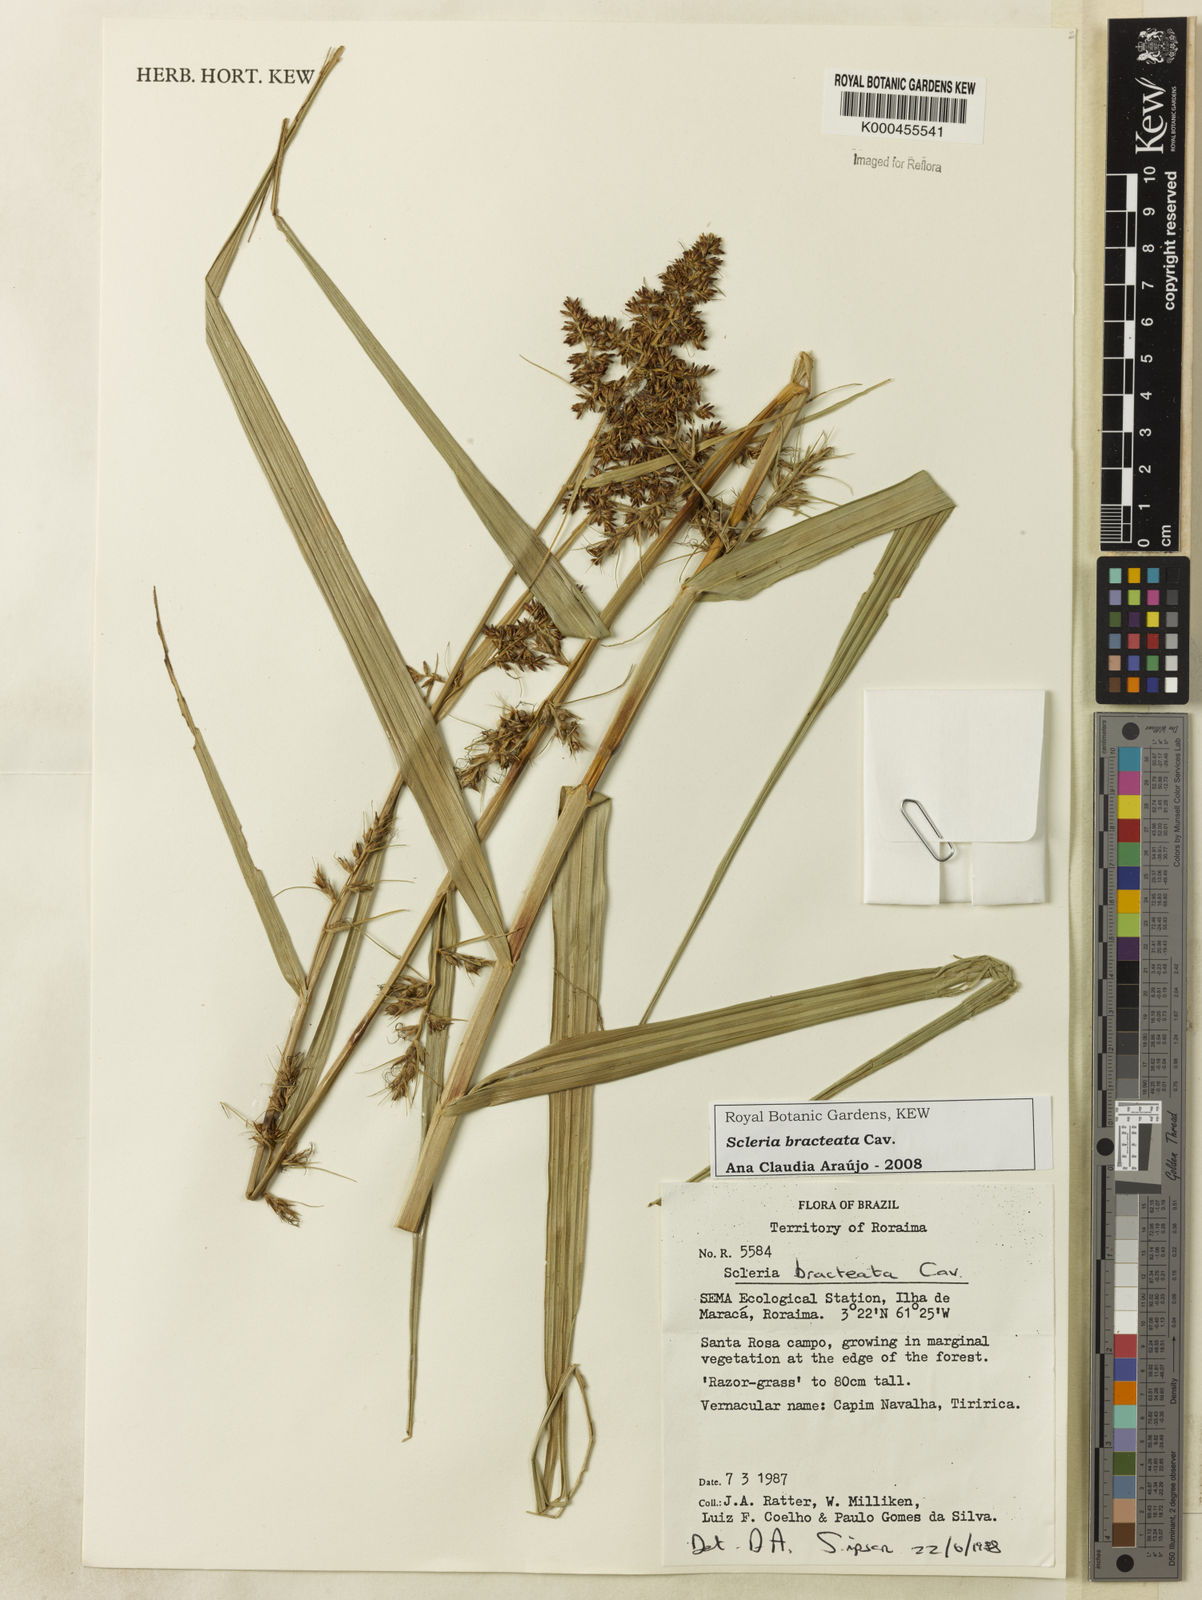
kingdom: Plantae
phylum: Tracheophyta
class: Liliopsida
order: Poales
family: Cyperaceae
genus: Scleria
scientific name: Scleria bracteata
